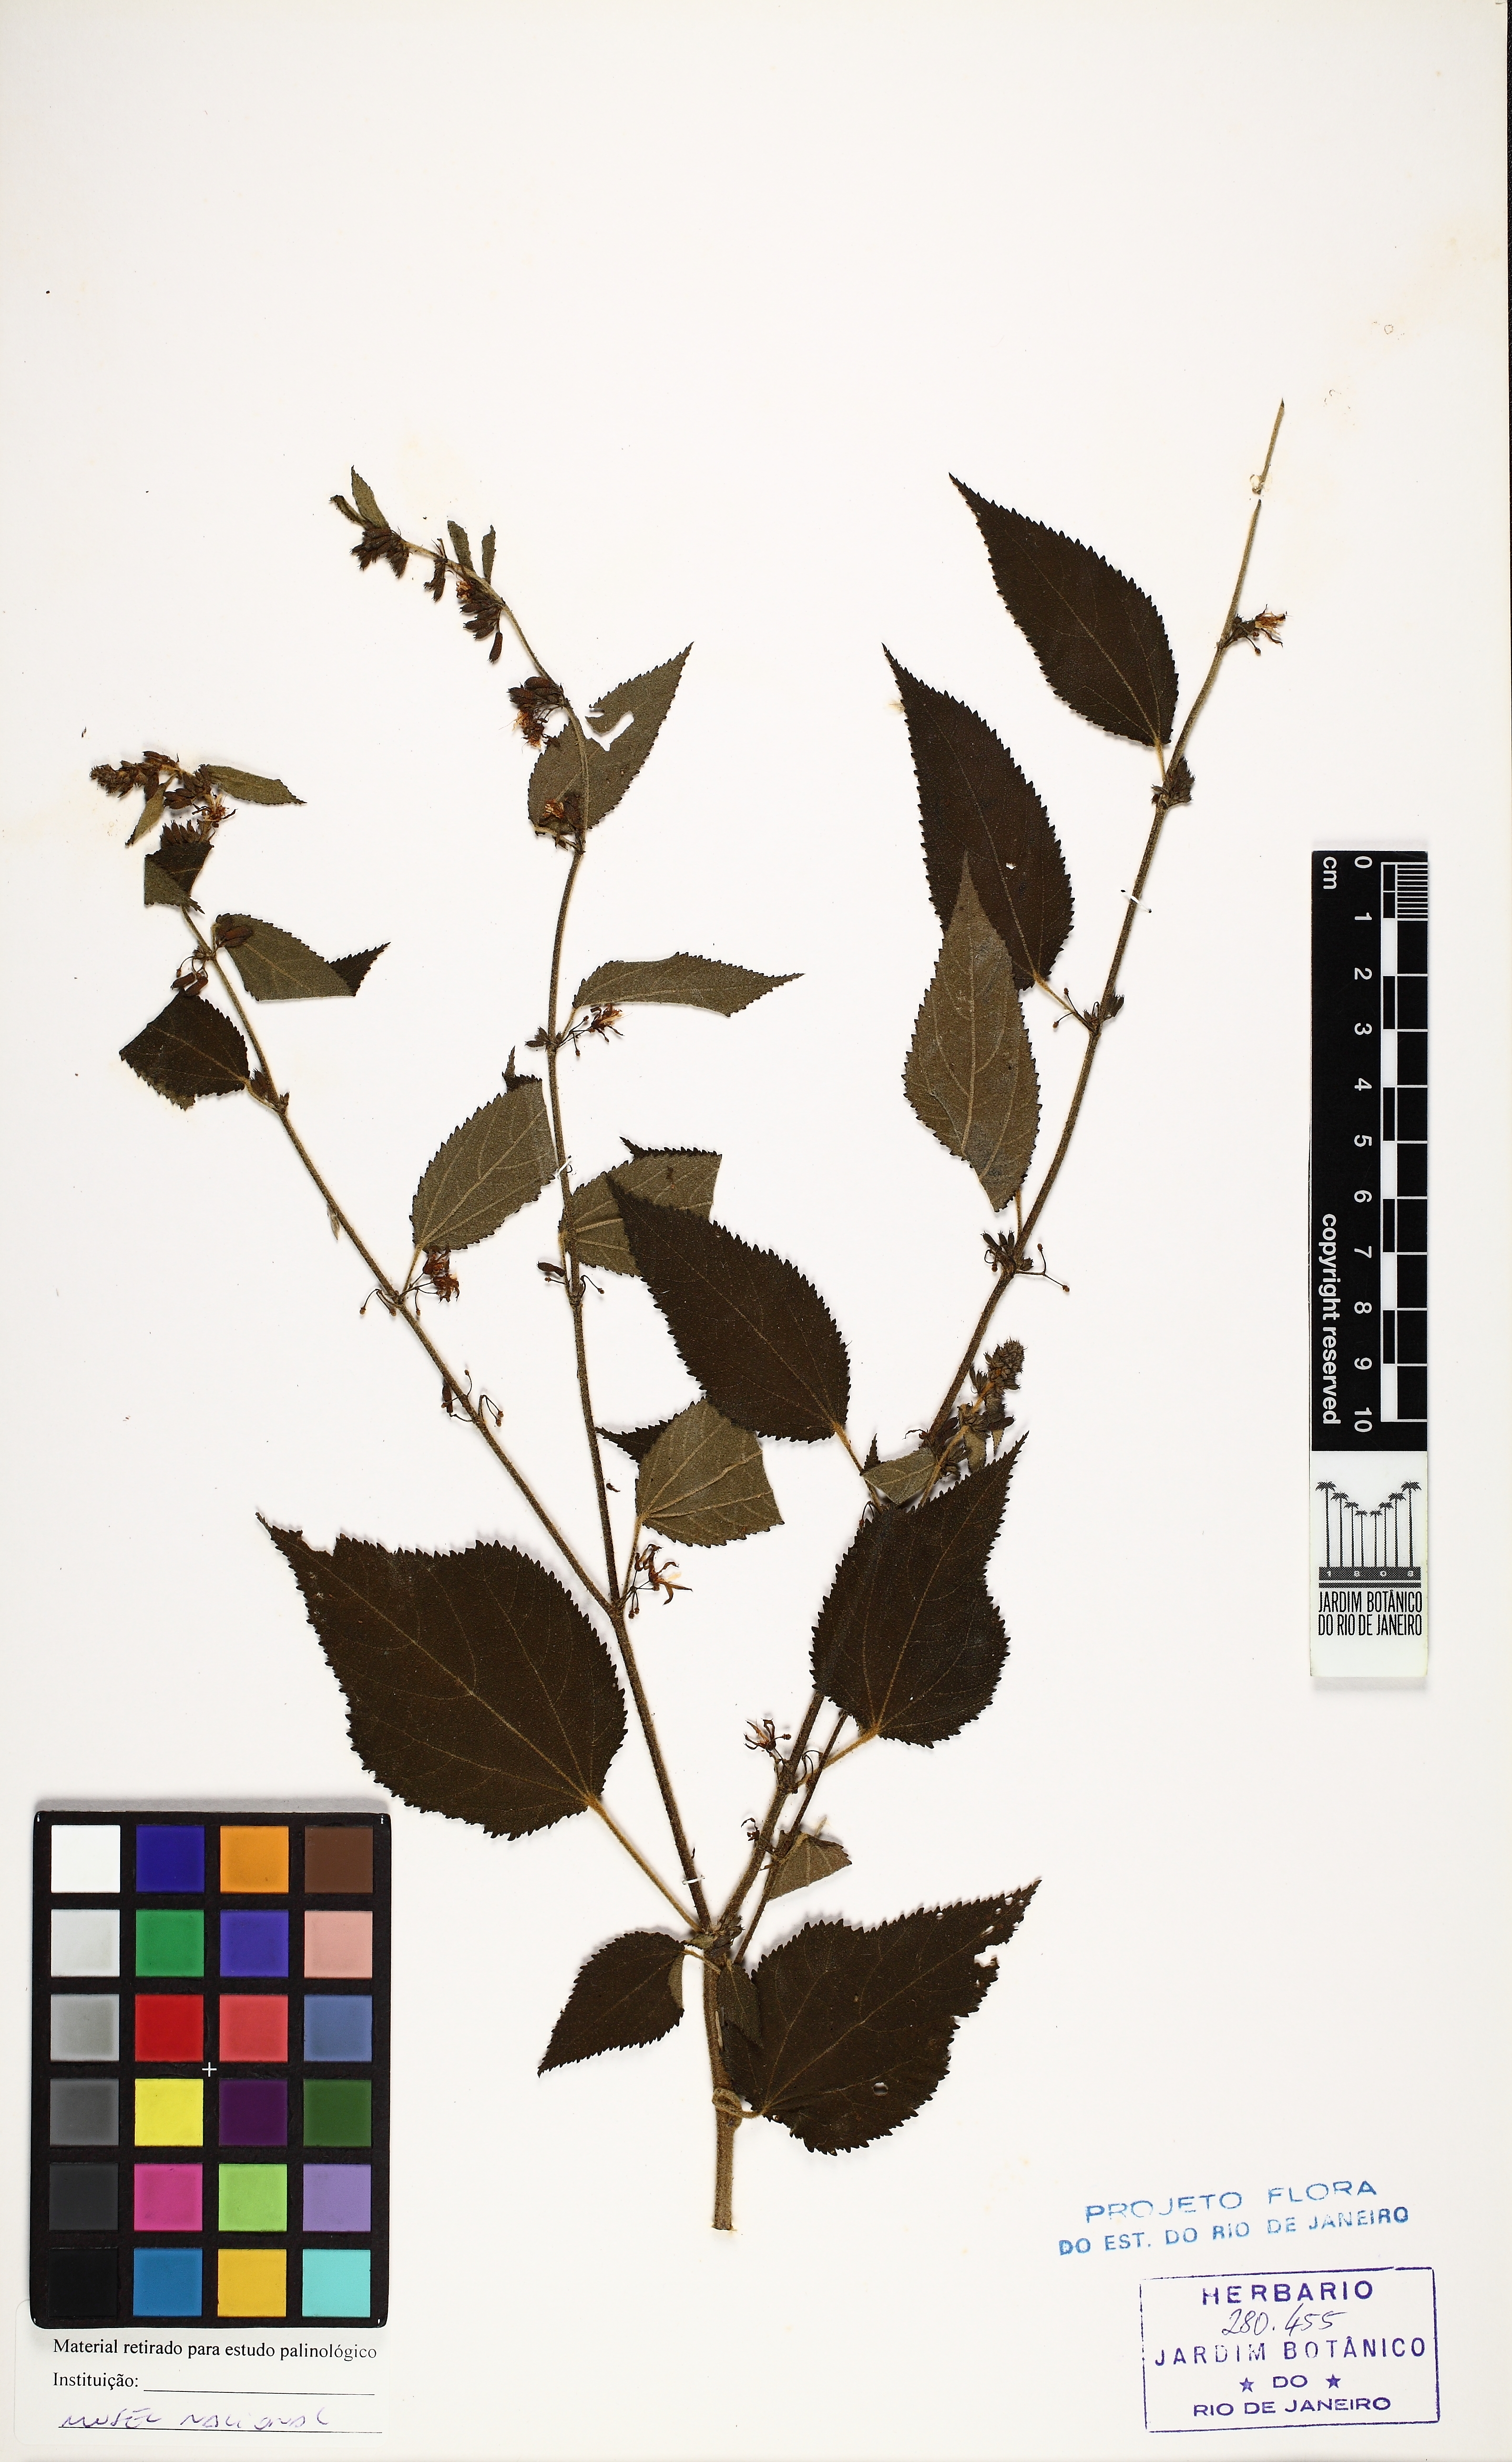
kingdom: Plantae
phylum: Tracheophyta
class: Magnoliopsida
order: Malvales
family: Malvaceae
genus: Triumfetta
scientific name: Triumfetta semitriloba
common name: Sacramento burbark
